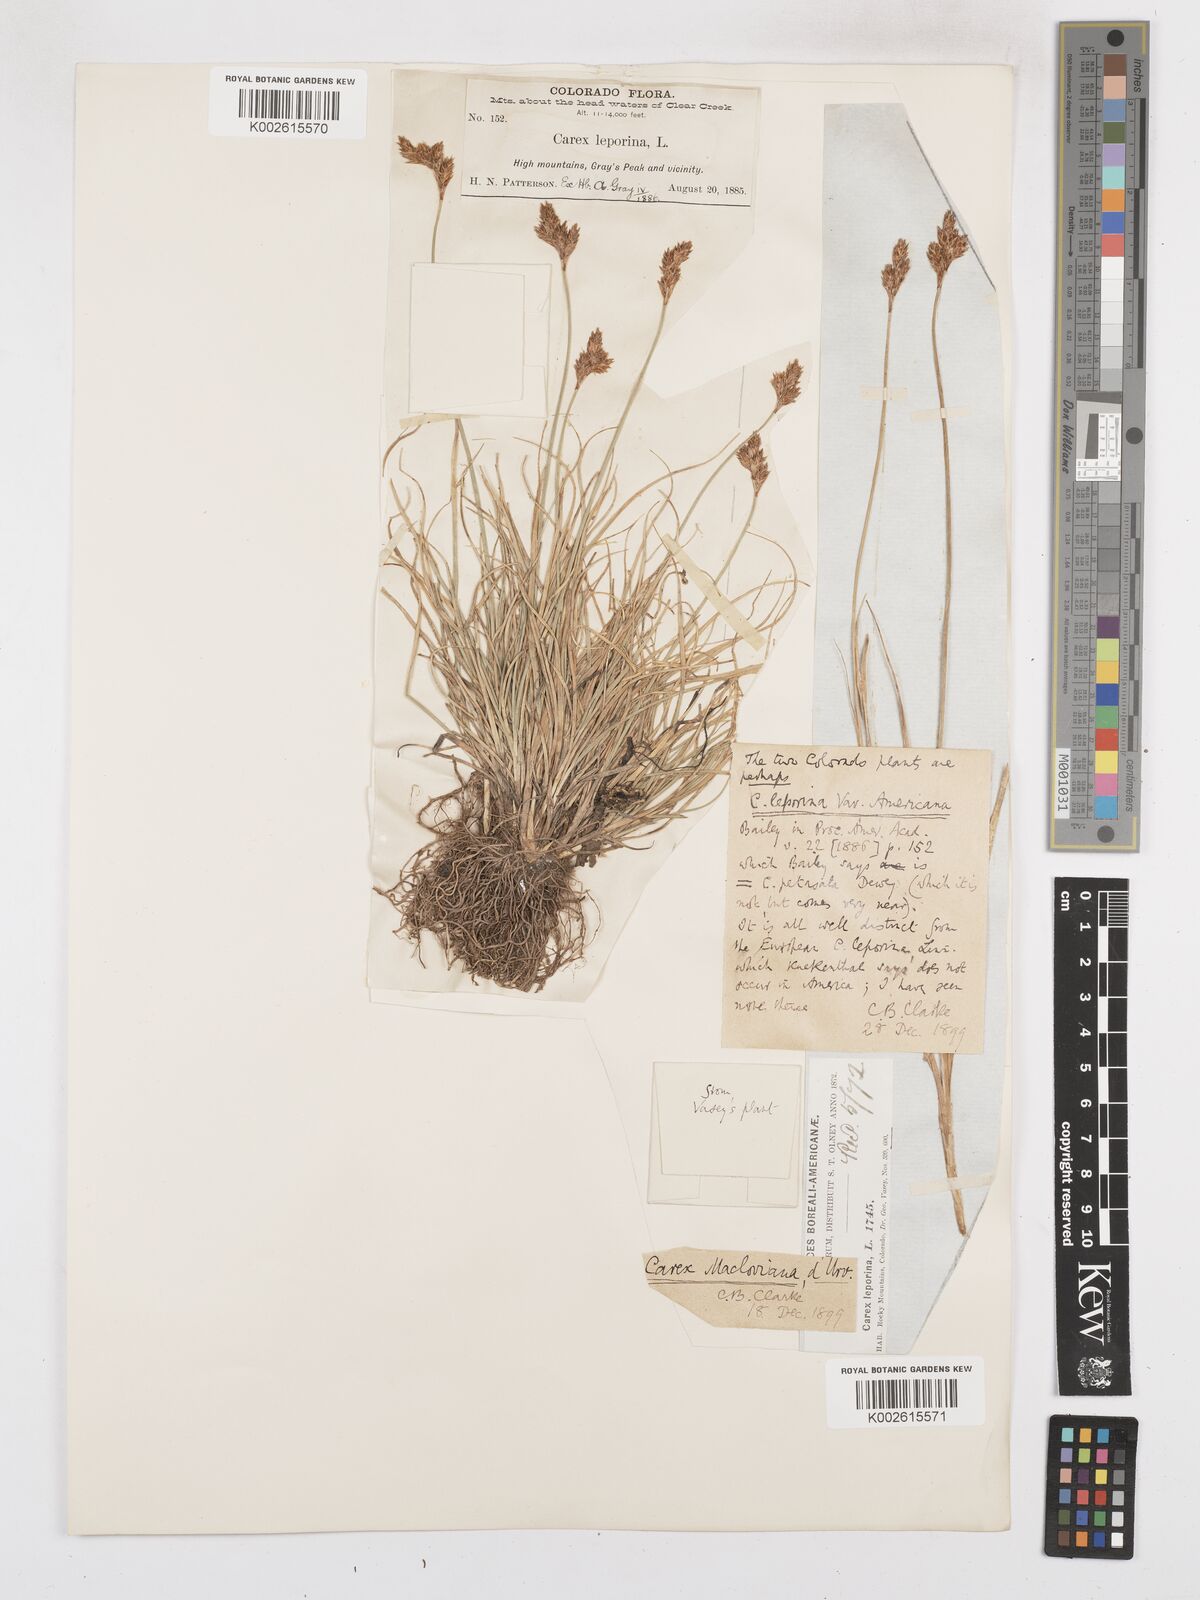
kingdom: Plantae
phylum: Tracheophyta
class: Liliopsida
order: Poales
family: Cyperaceae
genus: Carex
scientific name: Carex macloviana
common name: Falkland island sedge
